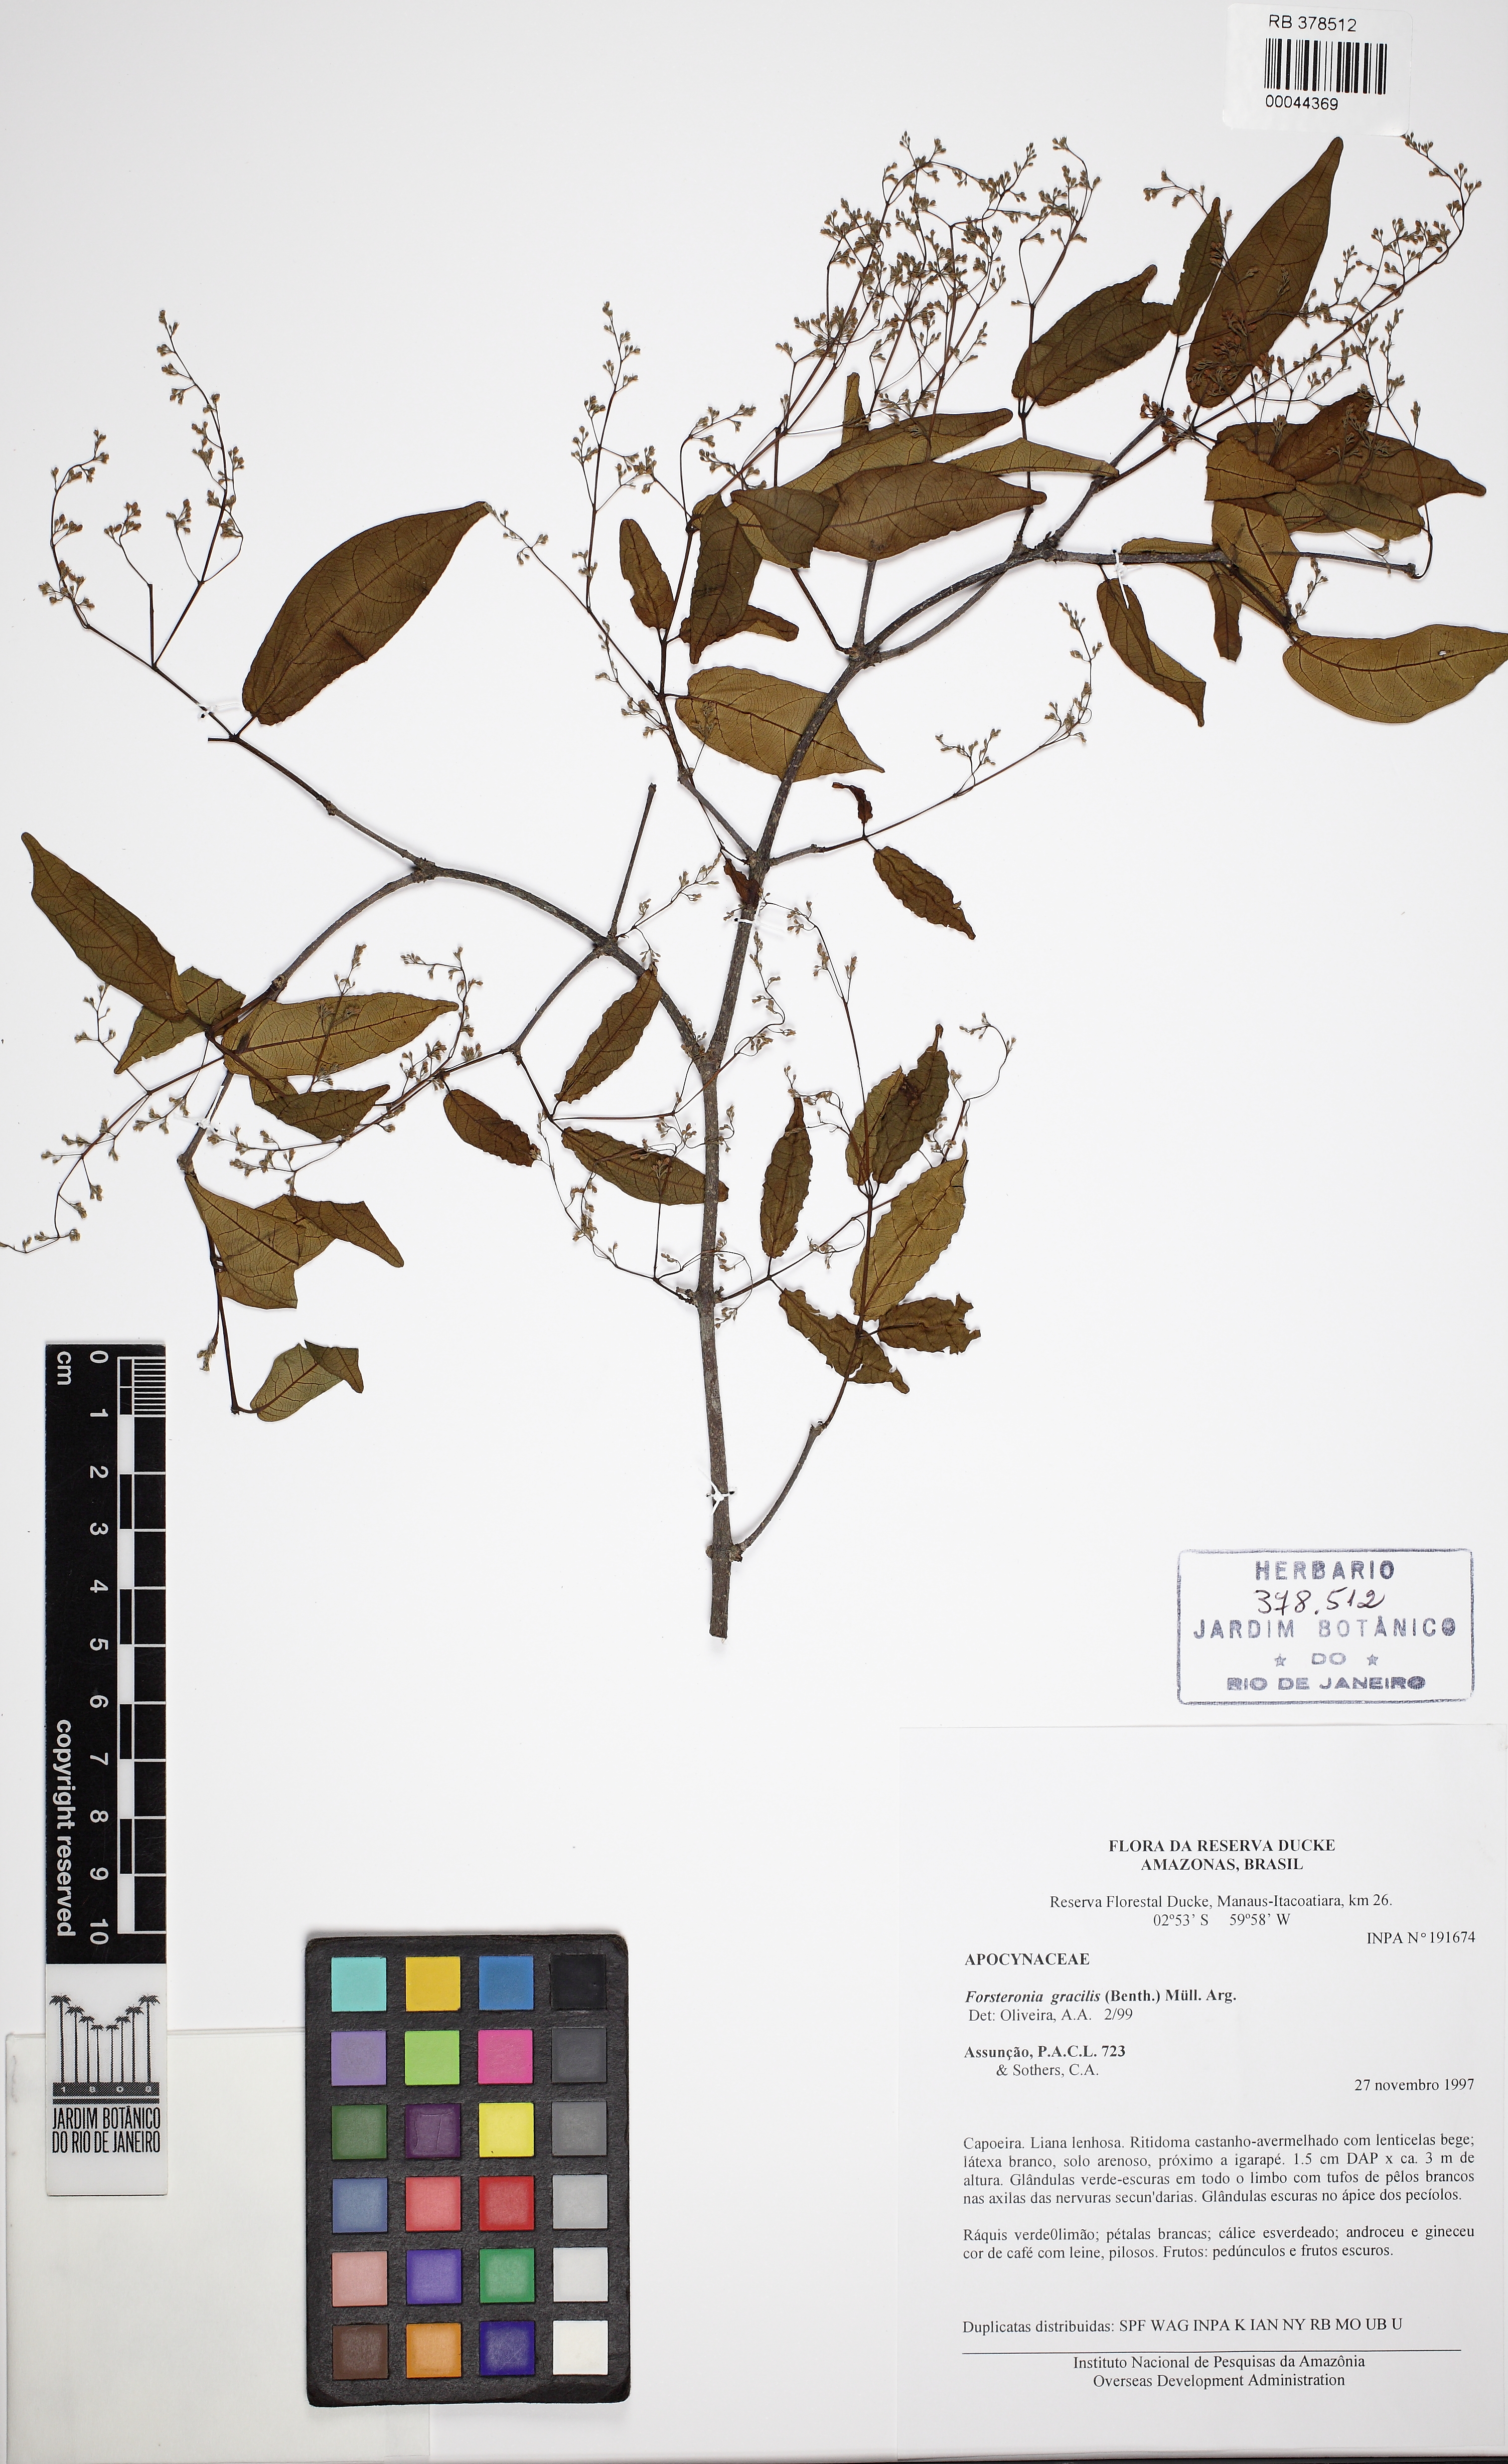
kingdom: Plantae
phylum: Tracheophyta
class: Magnoliopsida
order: Gentianales
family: Apocynaceae
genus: Forsteronia
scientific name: Forsteronia gracilis
